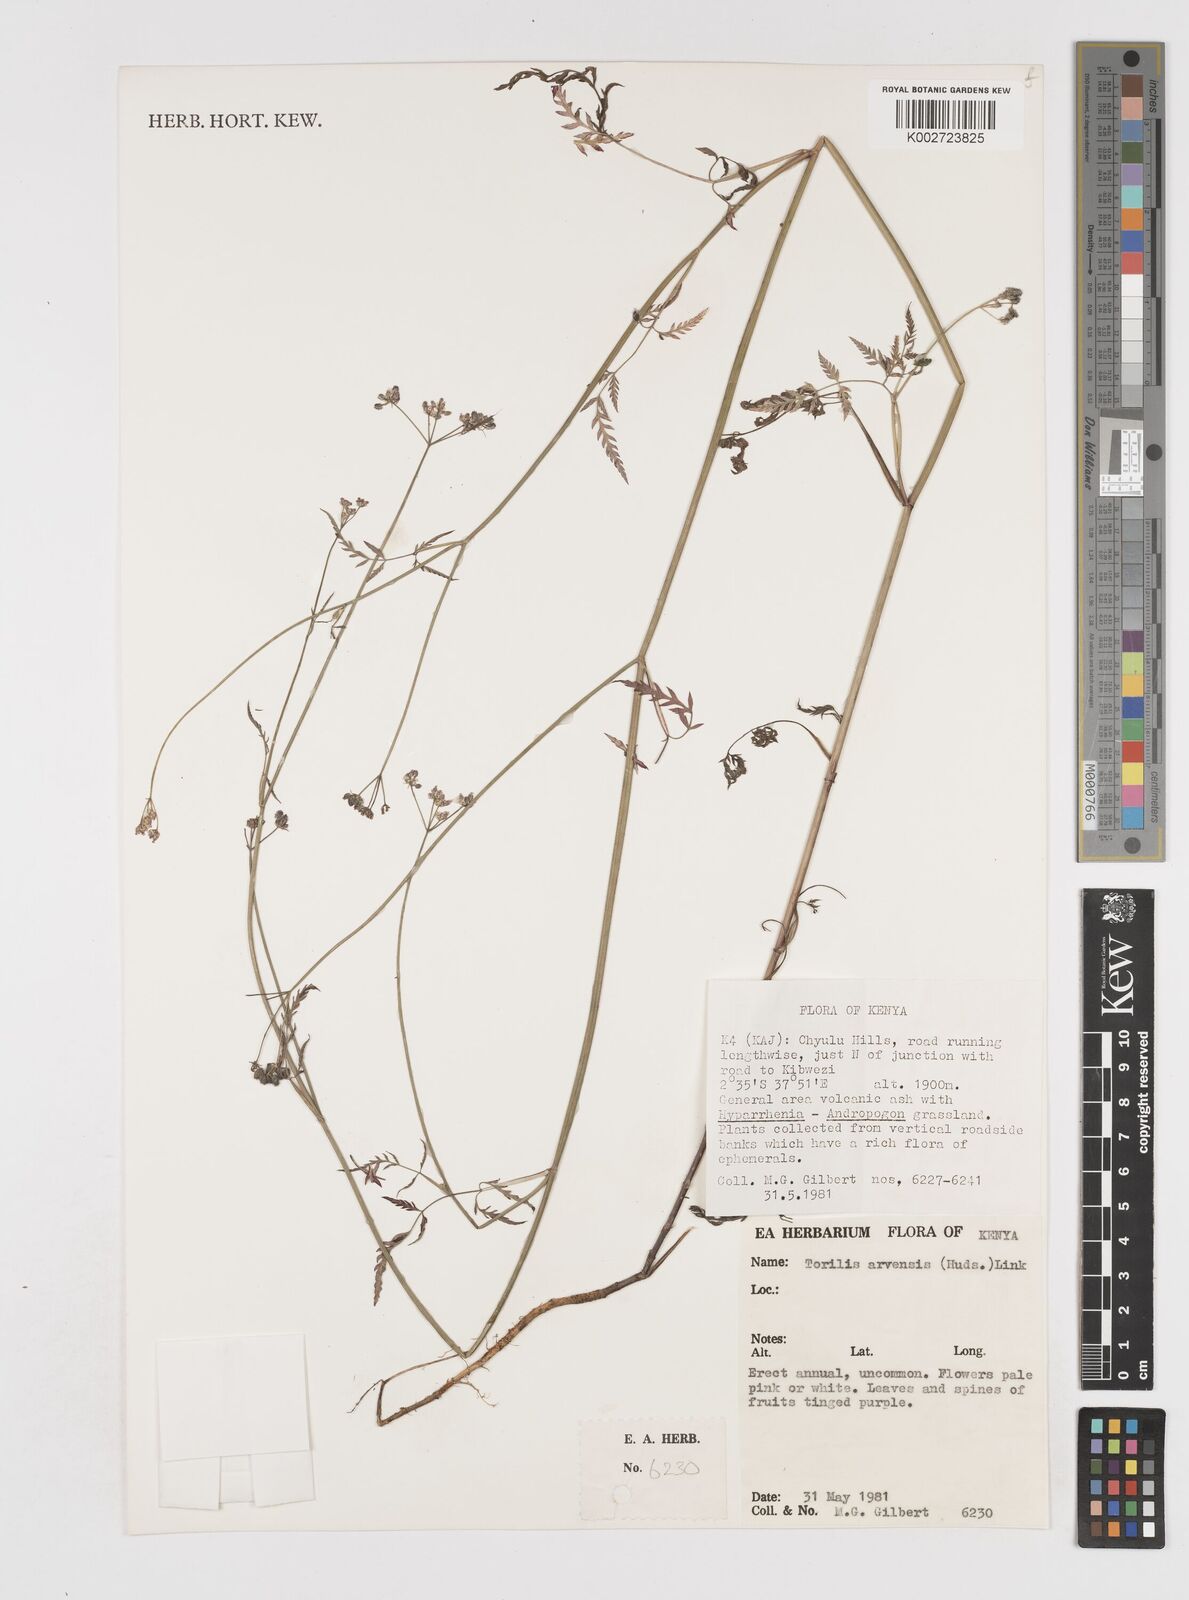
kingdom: Plantae
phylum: Tracheophyta
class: Magnoliopsida
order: Apiales
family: Apiaceae
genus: Torilis
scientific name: Torilis arvensis
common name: Spreading hedge-parsley
